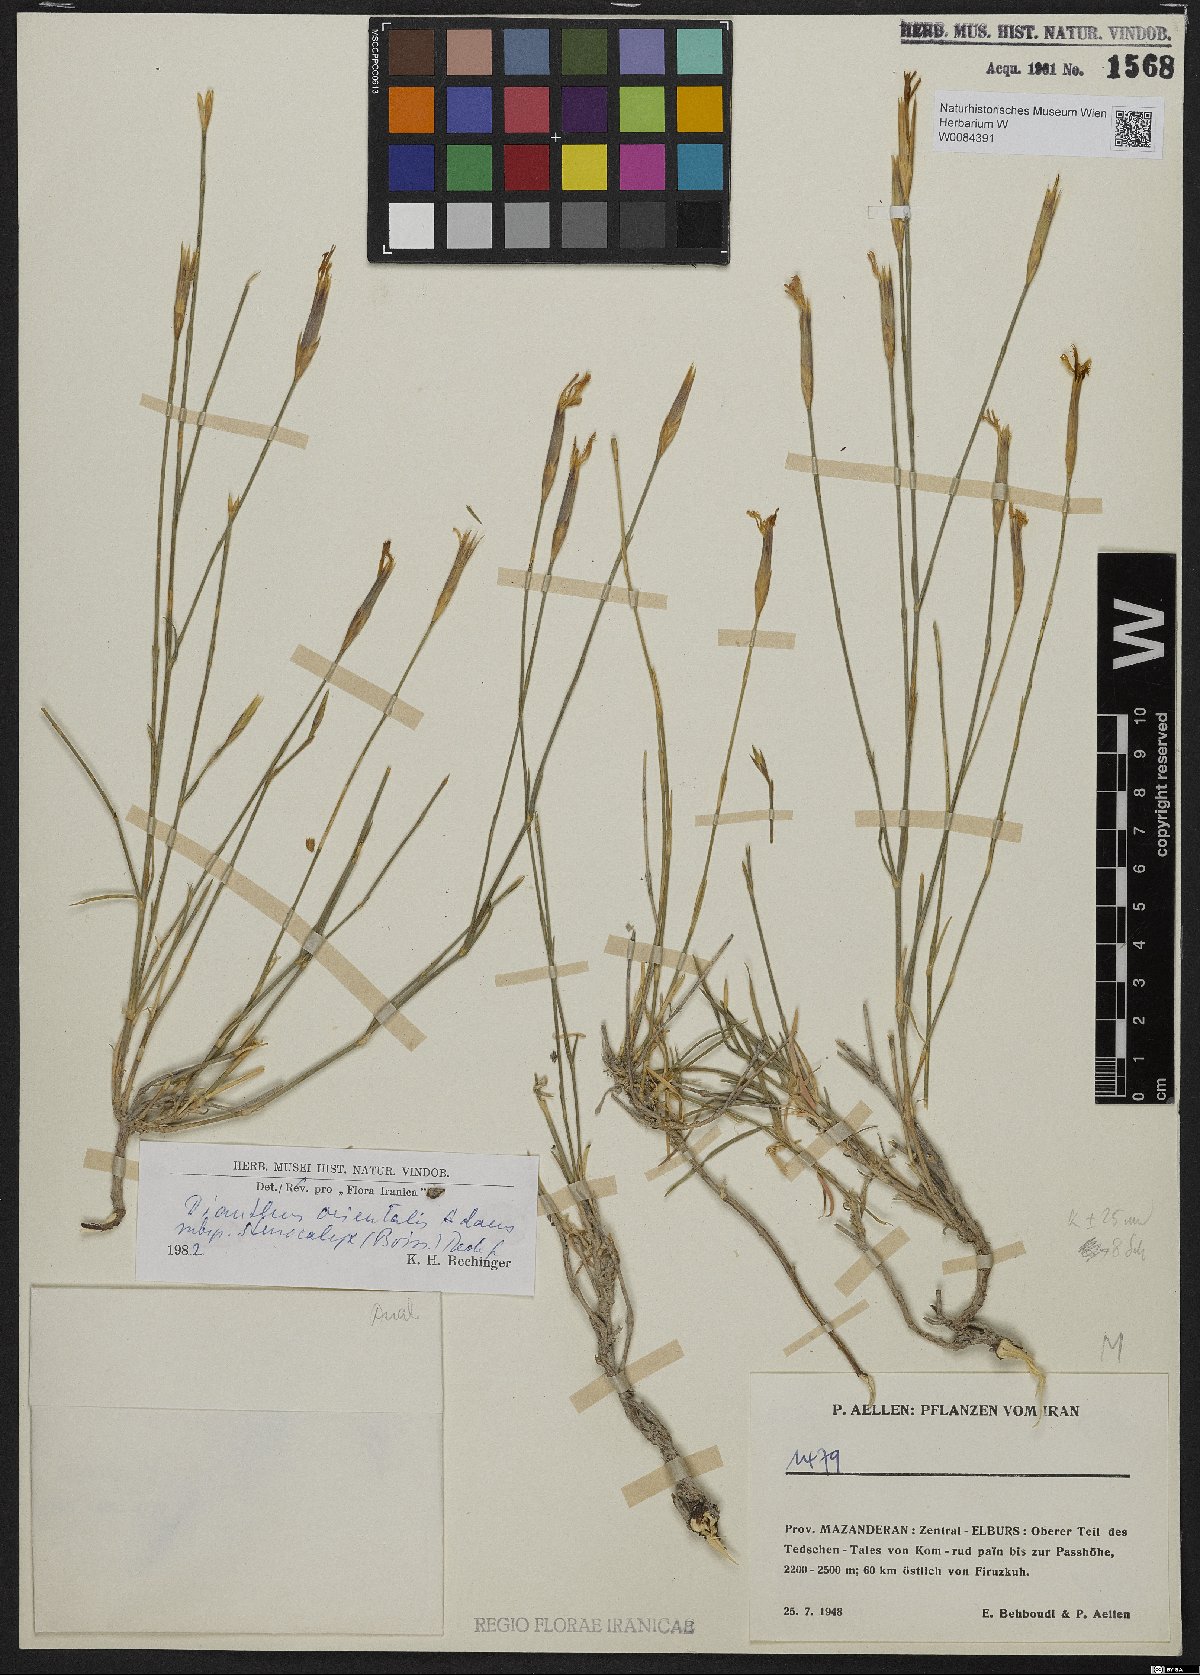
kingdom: Plantae
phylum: Tracheophyta
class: Magnoliopsida
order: Caryophyllales
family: Caryophyllaceae
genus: Dianthus
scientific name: Dianthus orientalis
